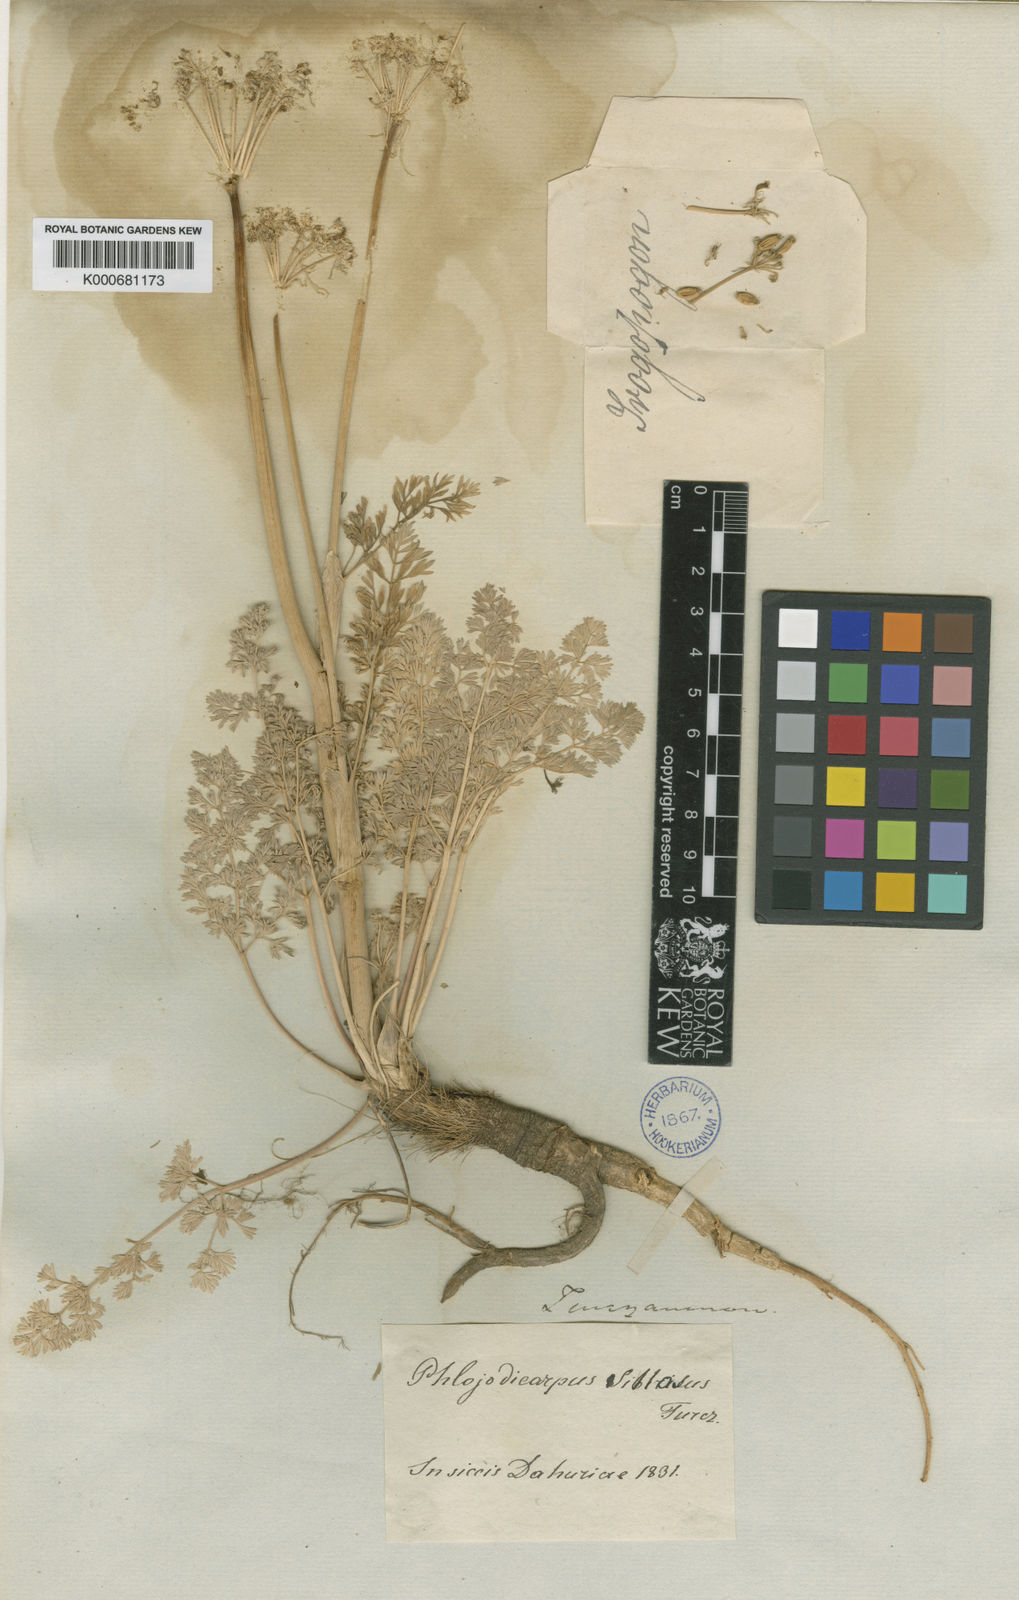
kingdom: Plantae
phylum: Tracheophyta
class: Magnoliopsida
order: Apiales
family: Apiaceae
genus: Phlojodicarpus
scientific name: Phlojodicarpus sibiricus
